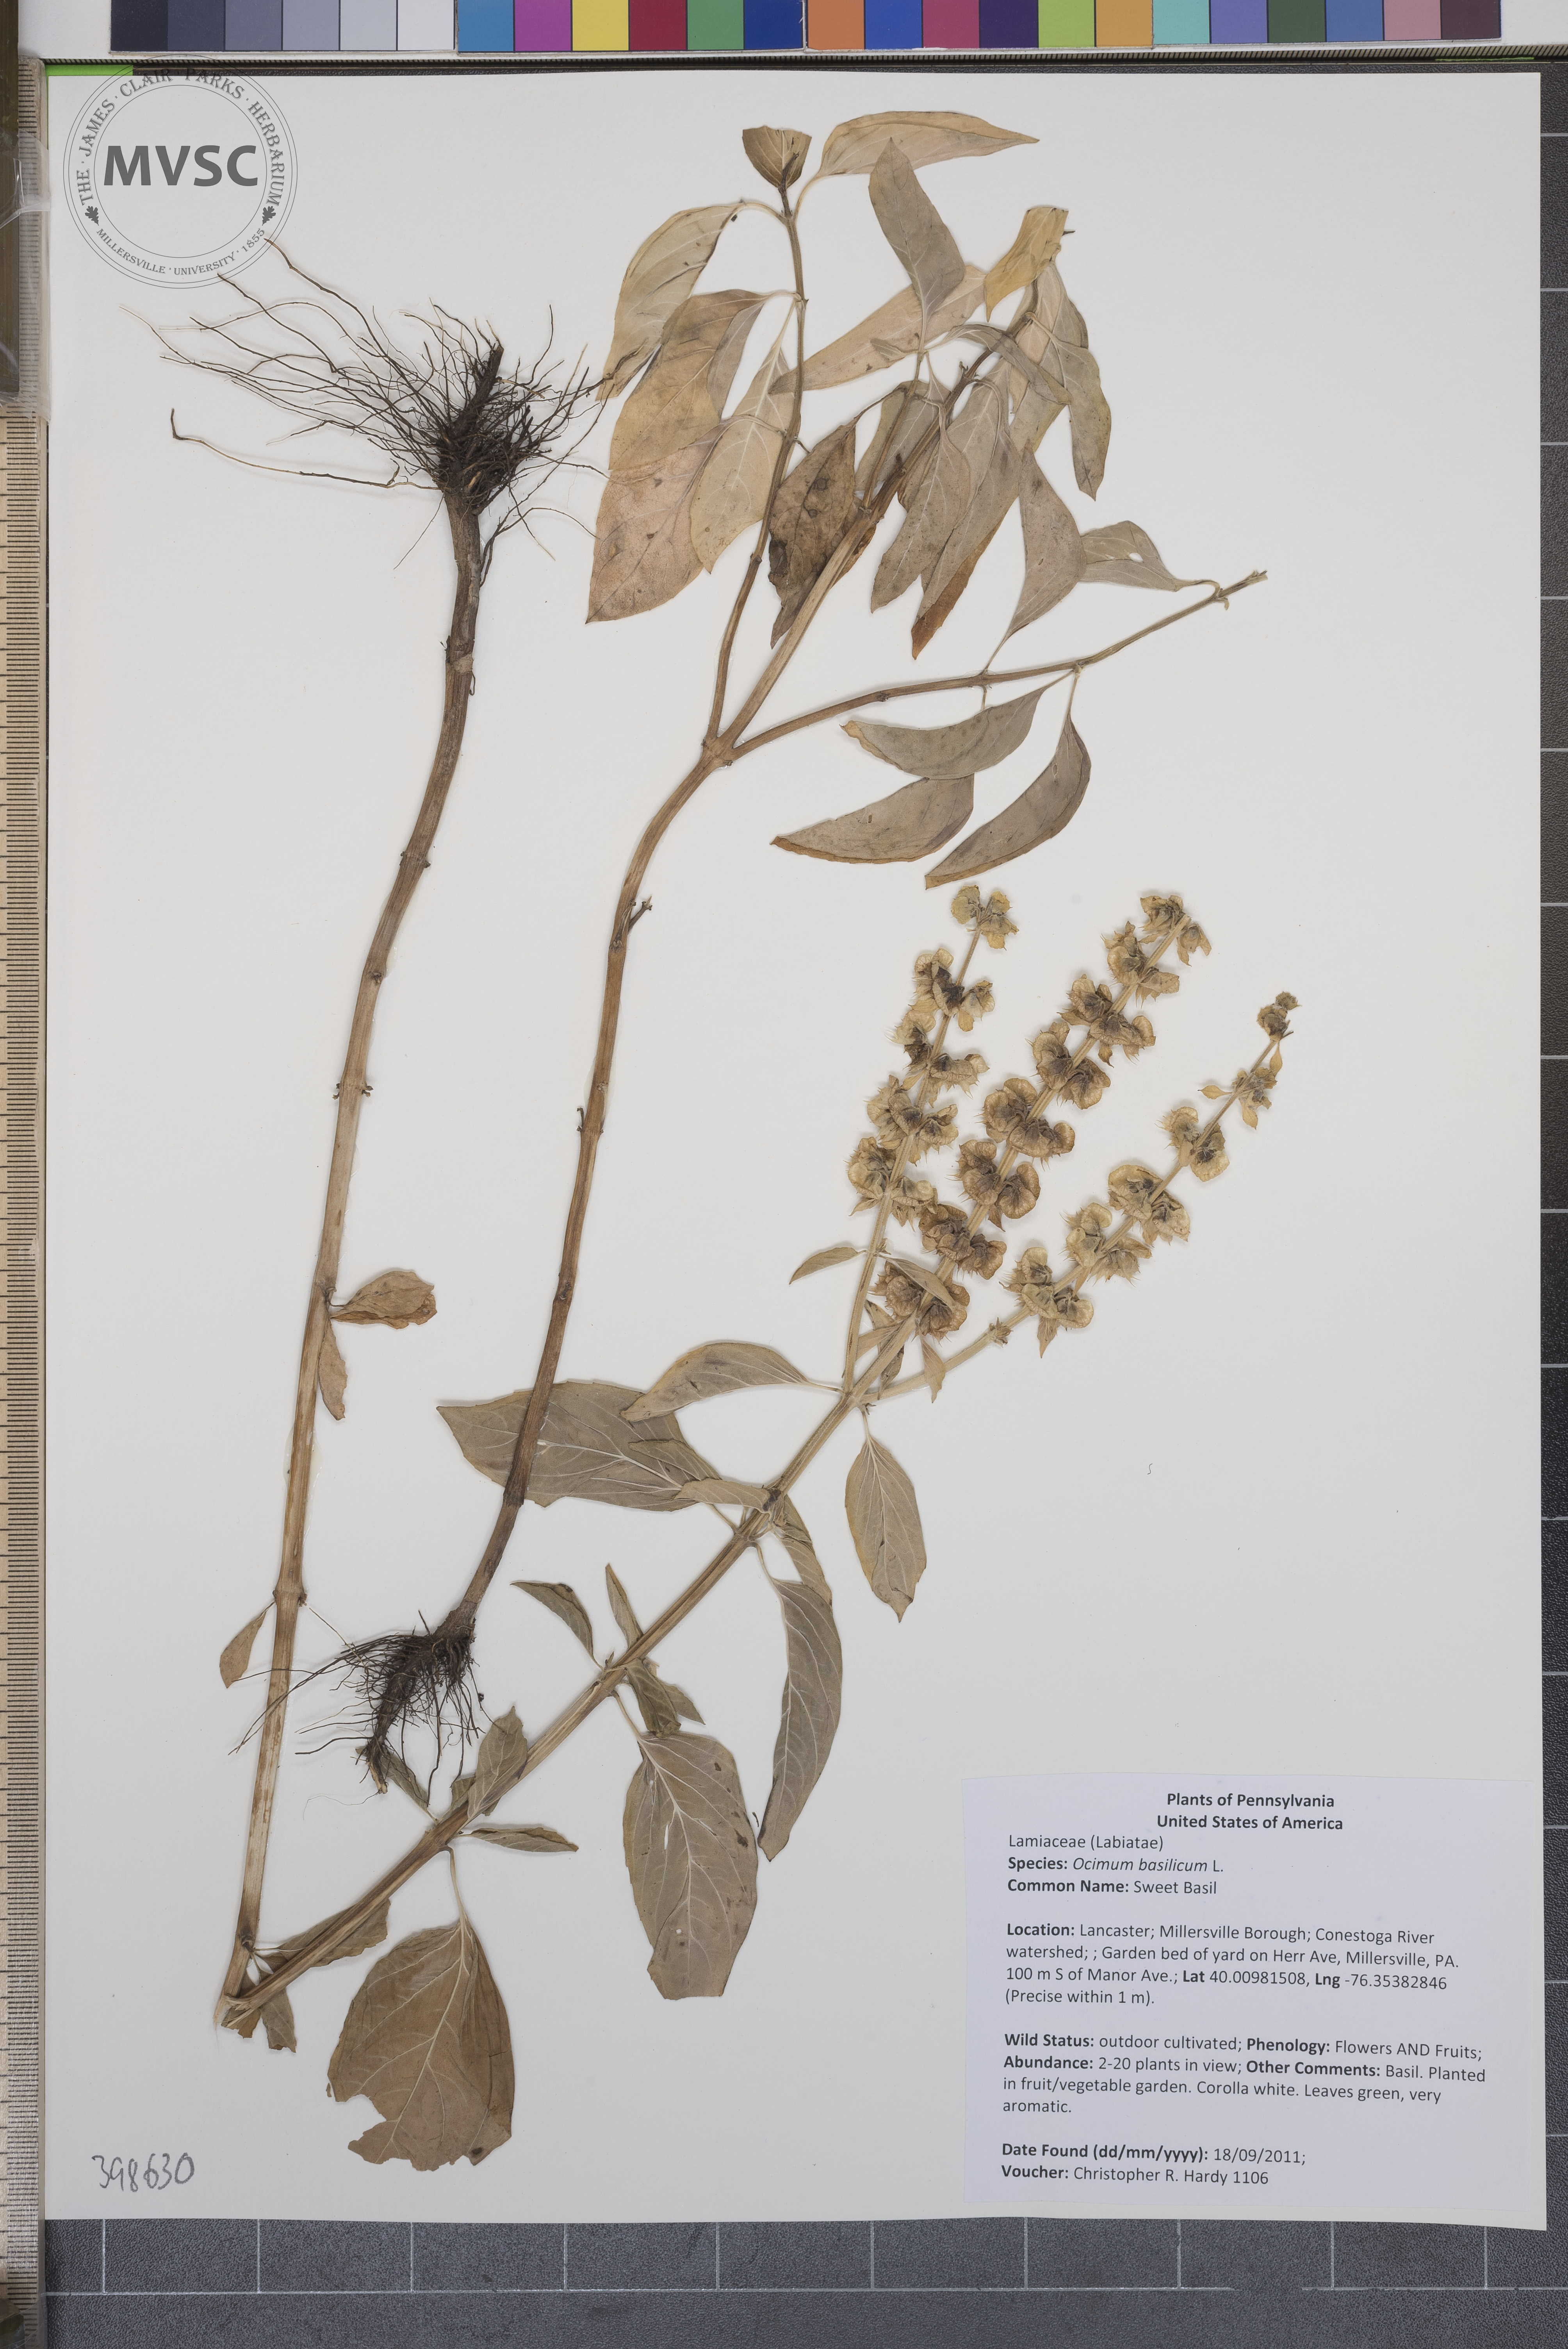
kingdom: Plantae
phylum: Tracheophyta
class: Magnoliopsida
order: Lamiales
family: Lamiaceae
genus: Ocimum
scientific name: Ocimum basilicum
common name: Sweet Basil
